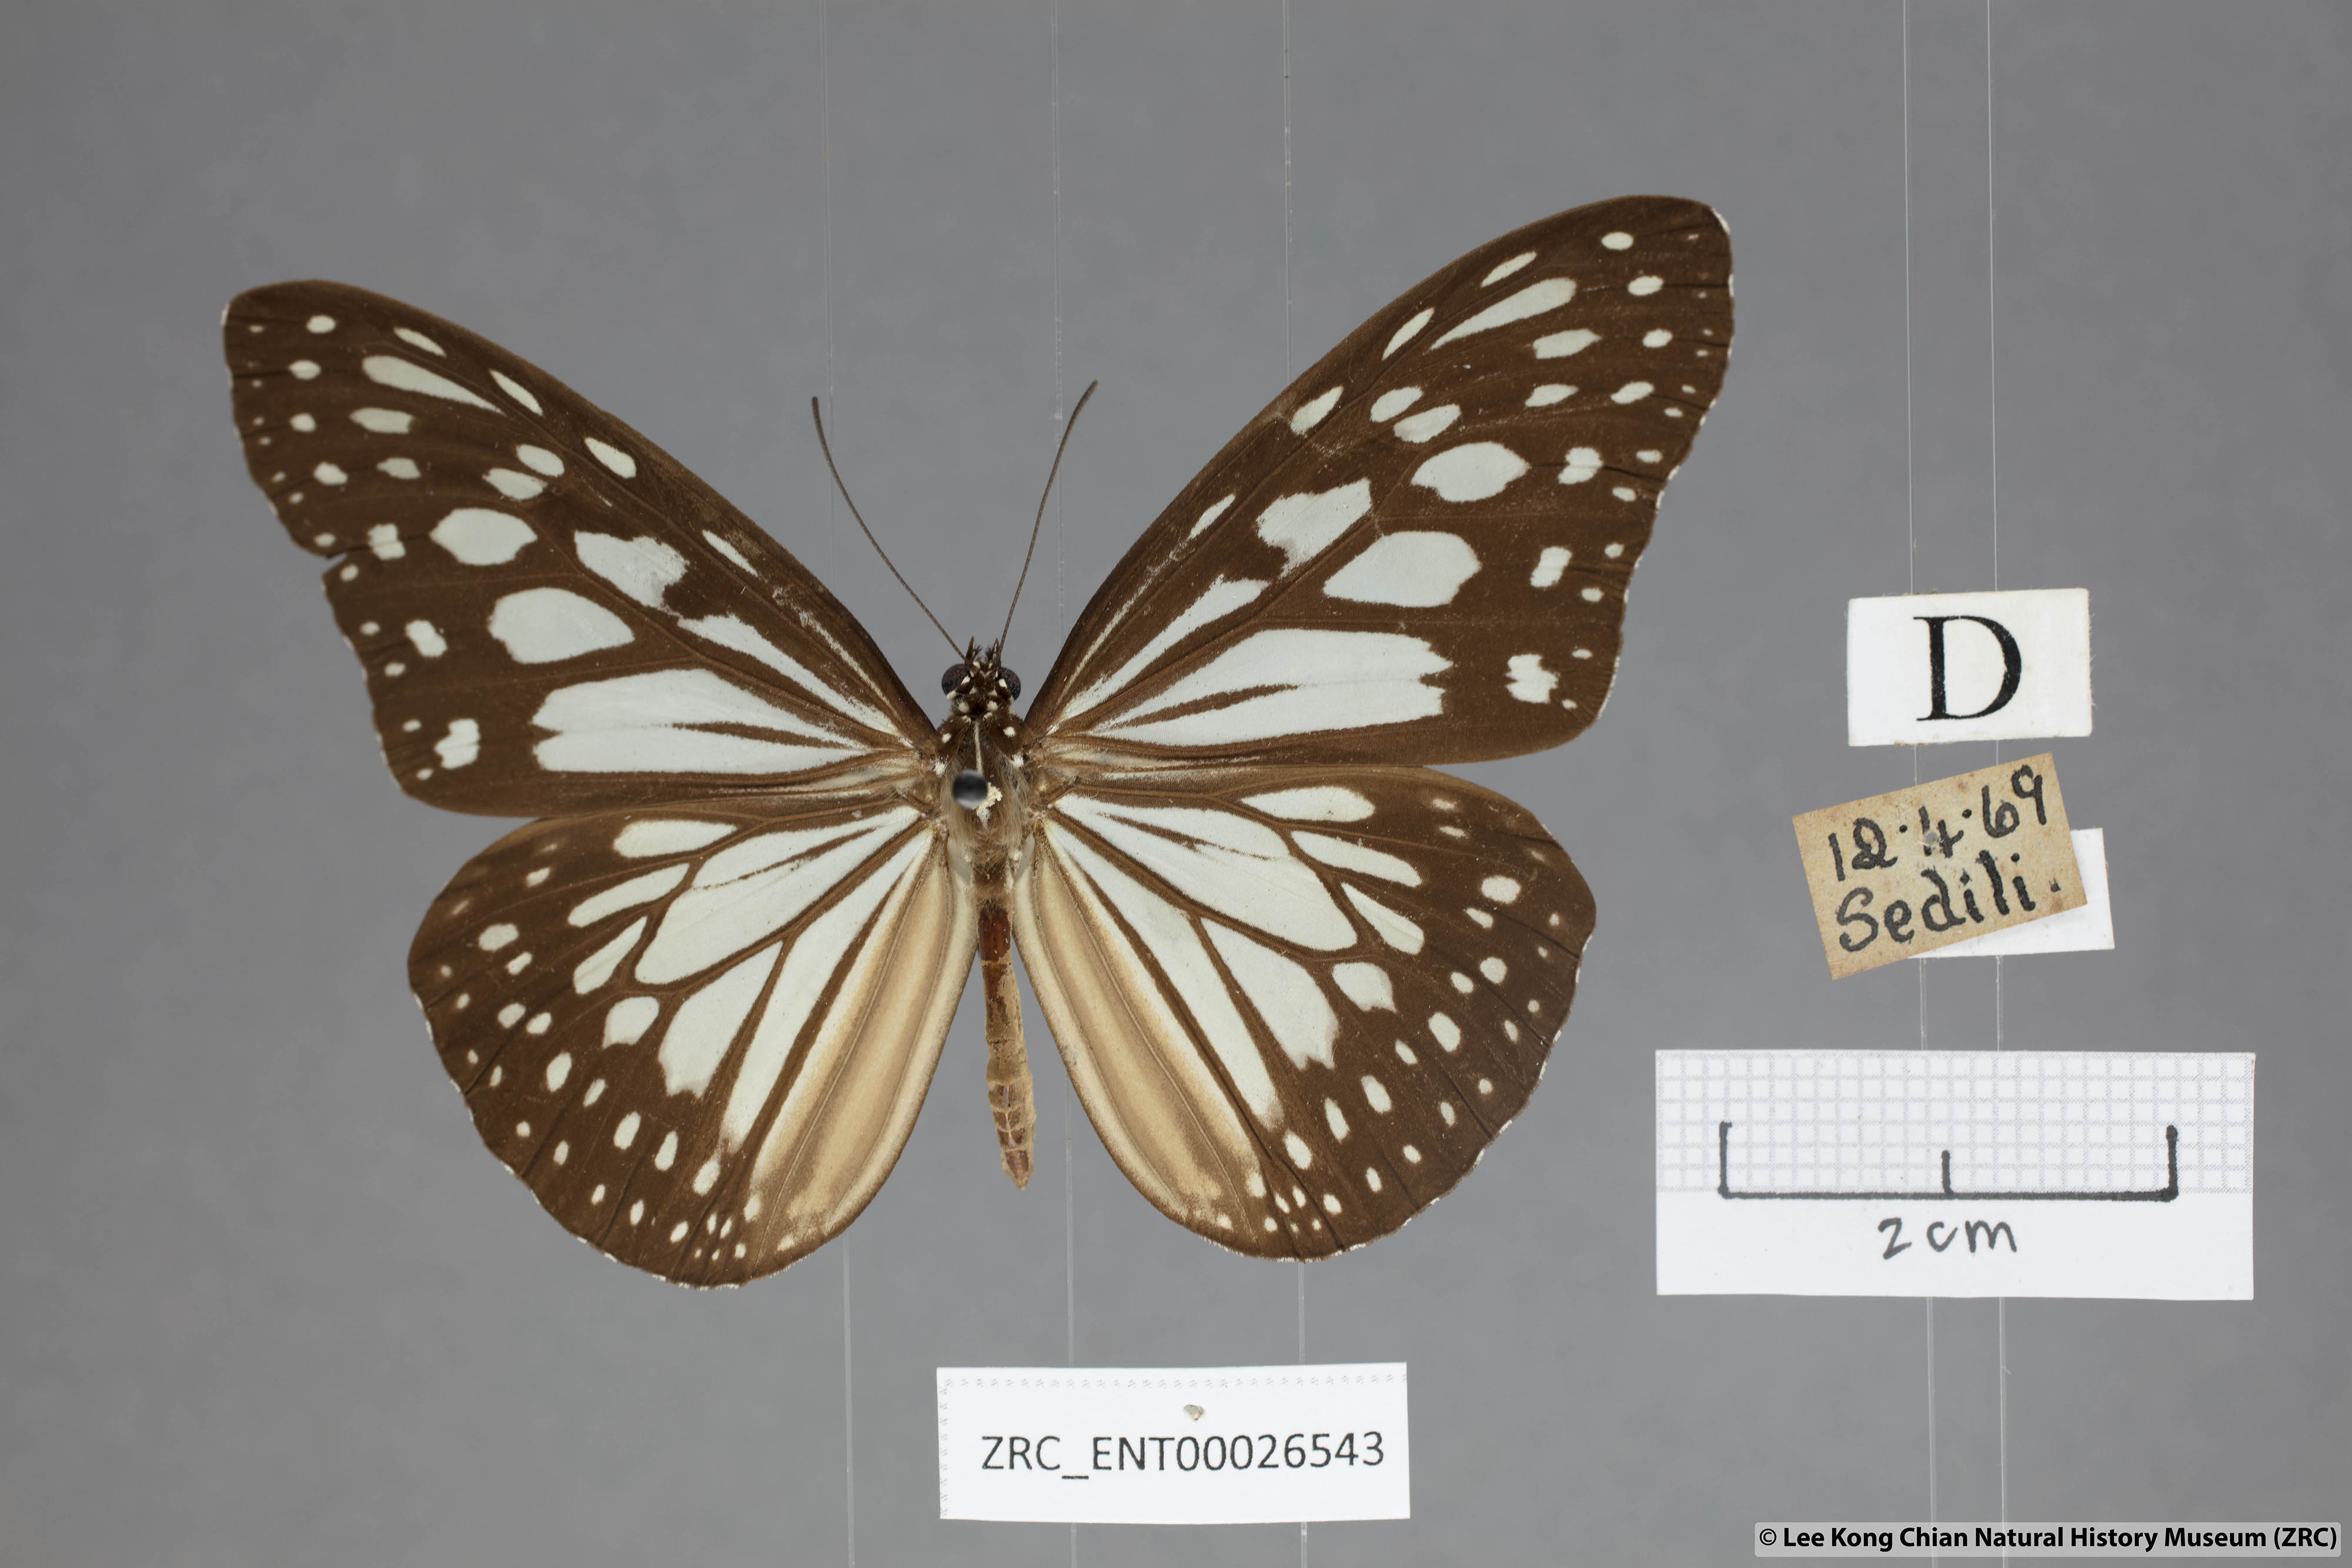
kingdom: Animalia
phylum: Arthropoda
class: Insecta
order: Lepidoptera
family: Nymphalidae
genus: Ideopsis
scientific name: Ideopsis juventa
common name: Grey glassy tiger
